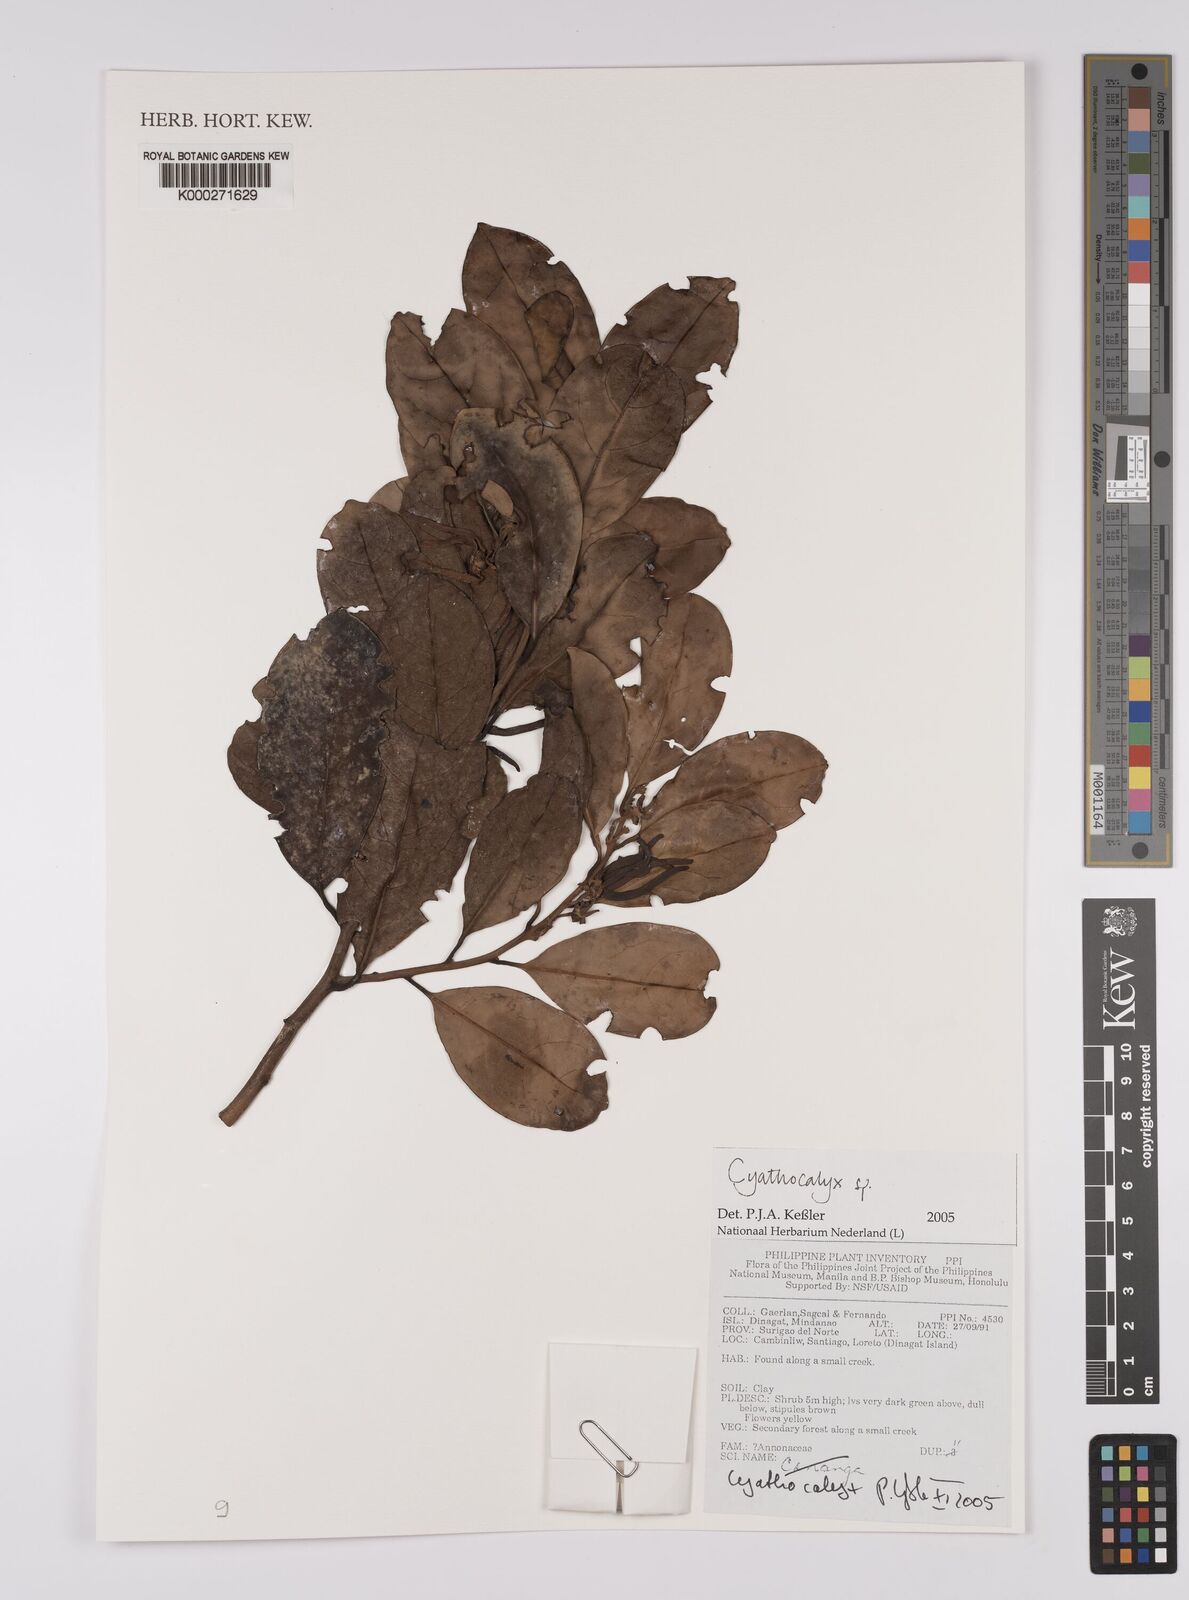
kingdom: Plantae
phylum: Tracheophyta
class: Magnoliopsida
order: Magnoliales
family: Annonaceae
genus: Cyathocalyx
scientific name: Cyathocalyx
